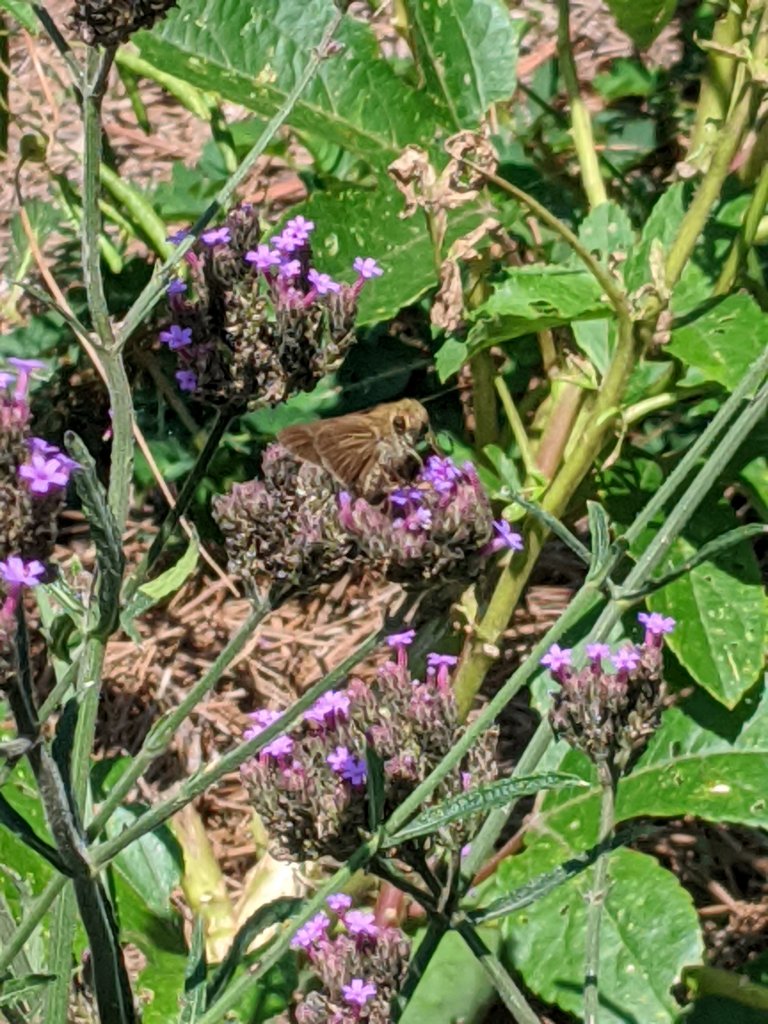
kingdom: Animalia
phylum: Arthropoda
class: Insecta
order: Lepidoptera
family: Hesperiidae
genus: Panoquina
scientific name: Panoquina ocola
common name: Ocola Skipper
